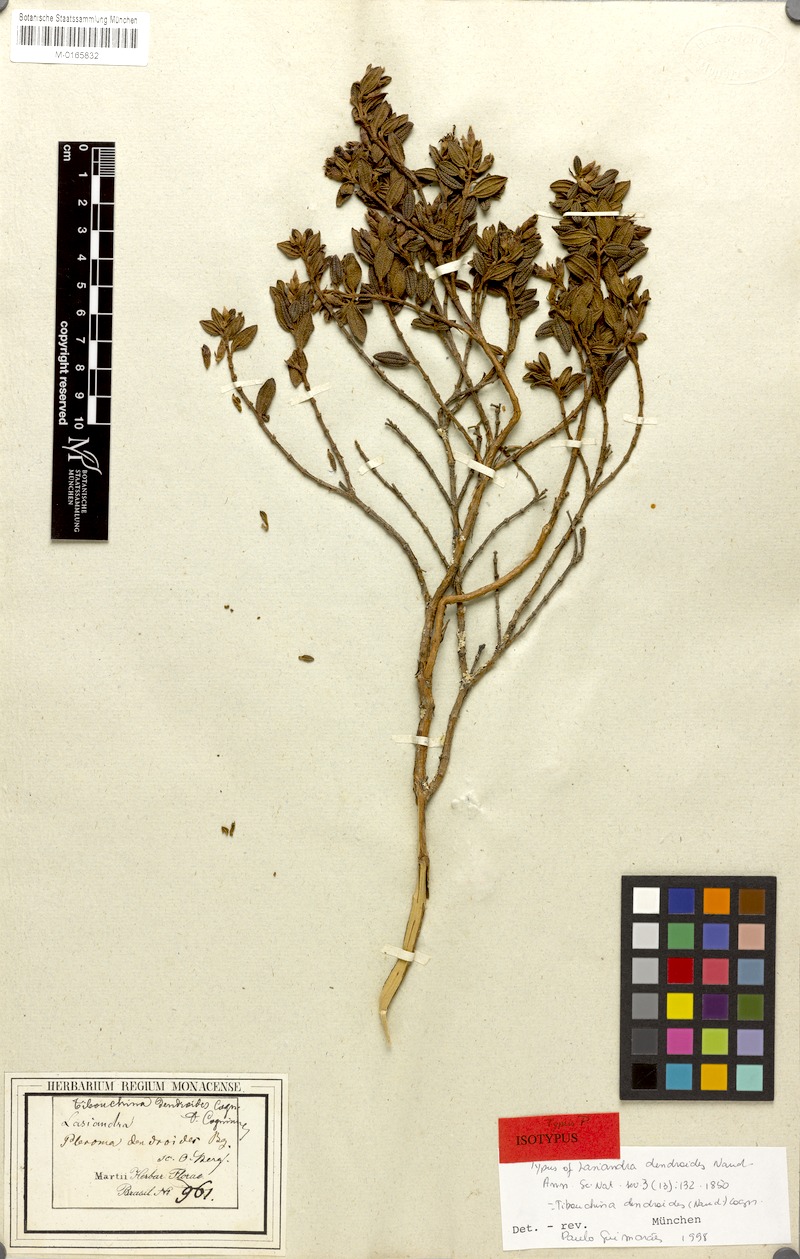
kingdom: Plantae
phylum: Tracheophyta
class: Magnoliopsida
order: Myrtales
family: Melastomataceae
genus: Pleroma
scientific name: Pleroma dendroides
